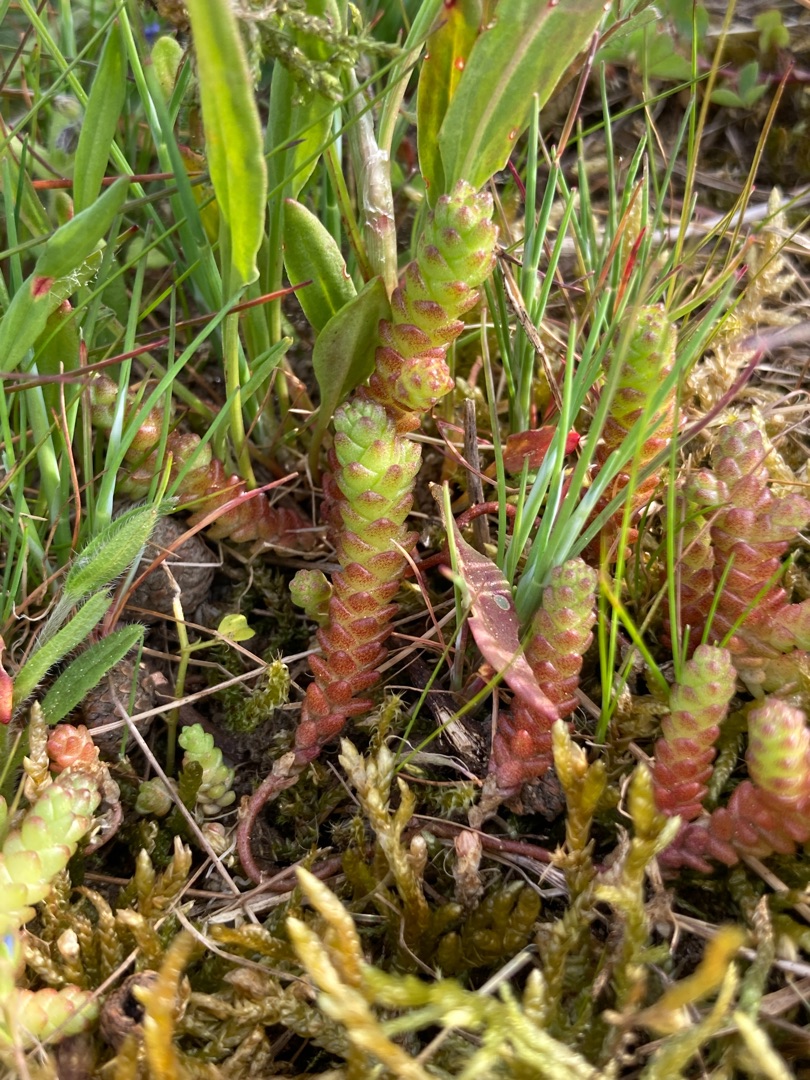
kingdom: Plantae
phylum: Tracheophyta
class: Magnoliopsida
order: Saxifragales
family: Crassulaceae
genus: Sedum
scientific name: Sedum acre
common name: Bidende stenurt
